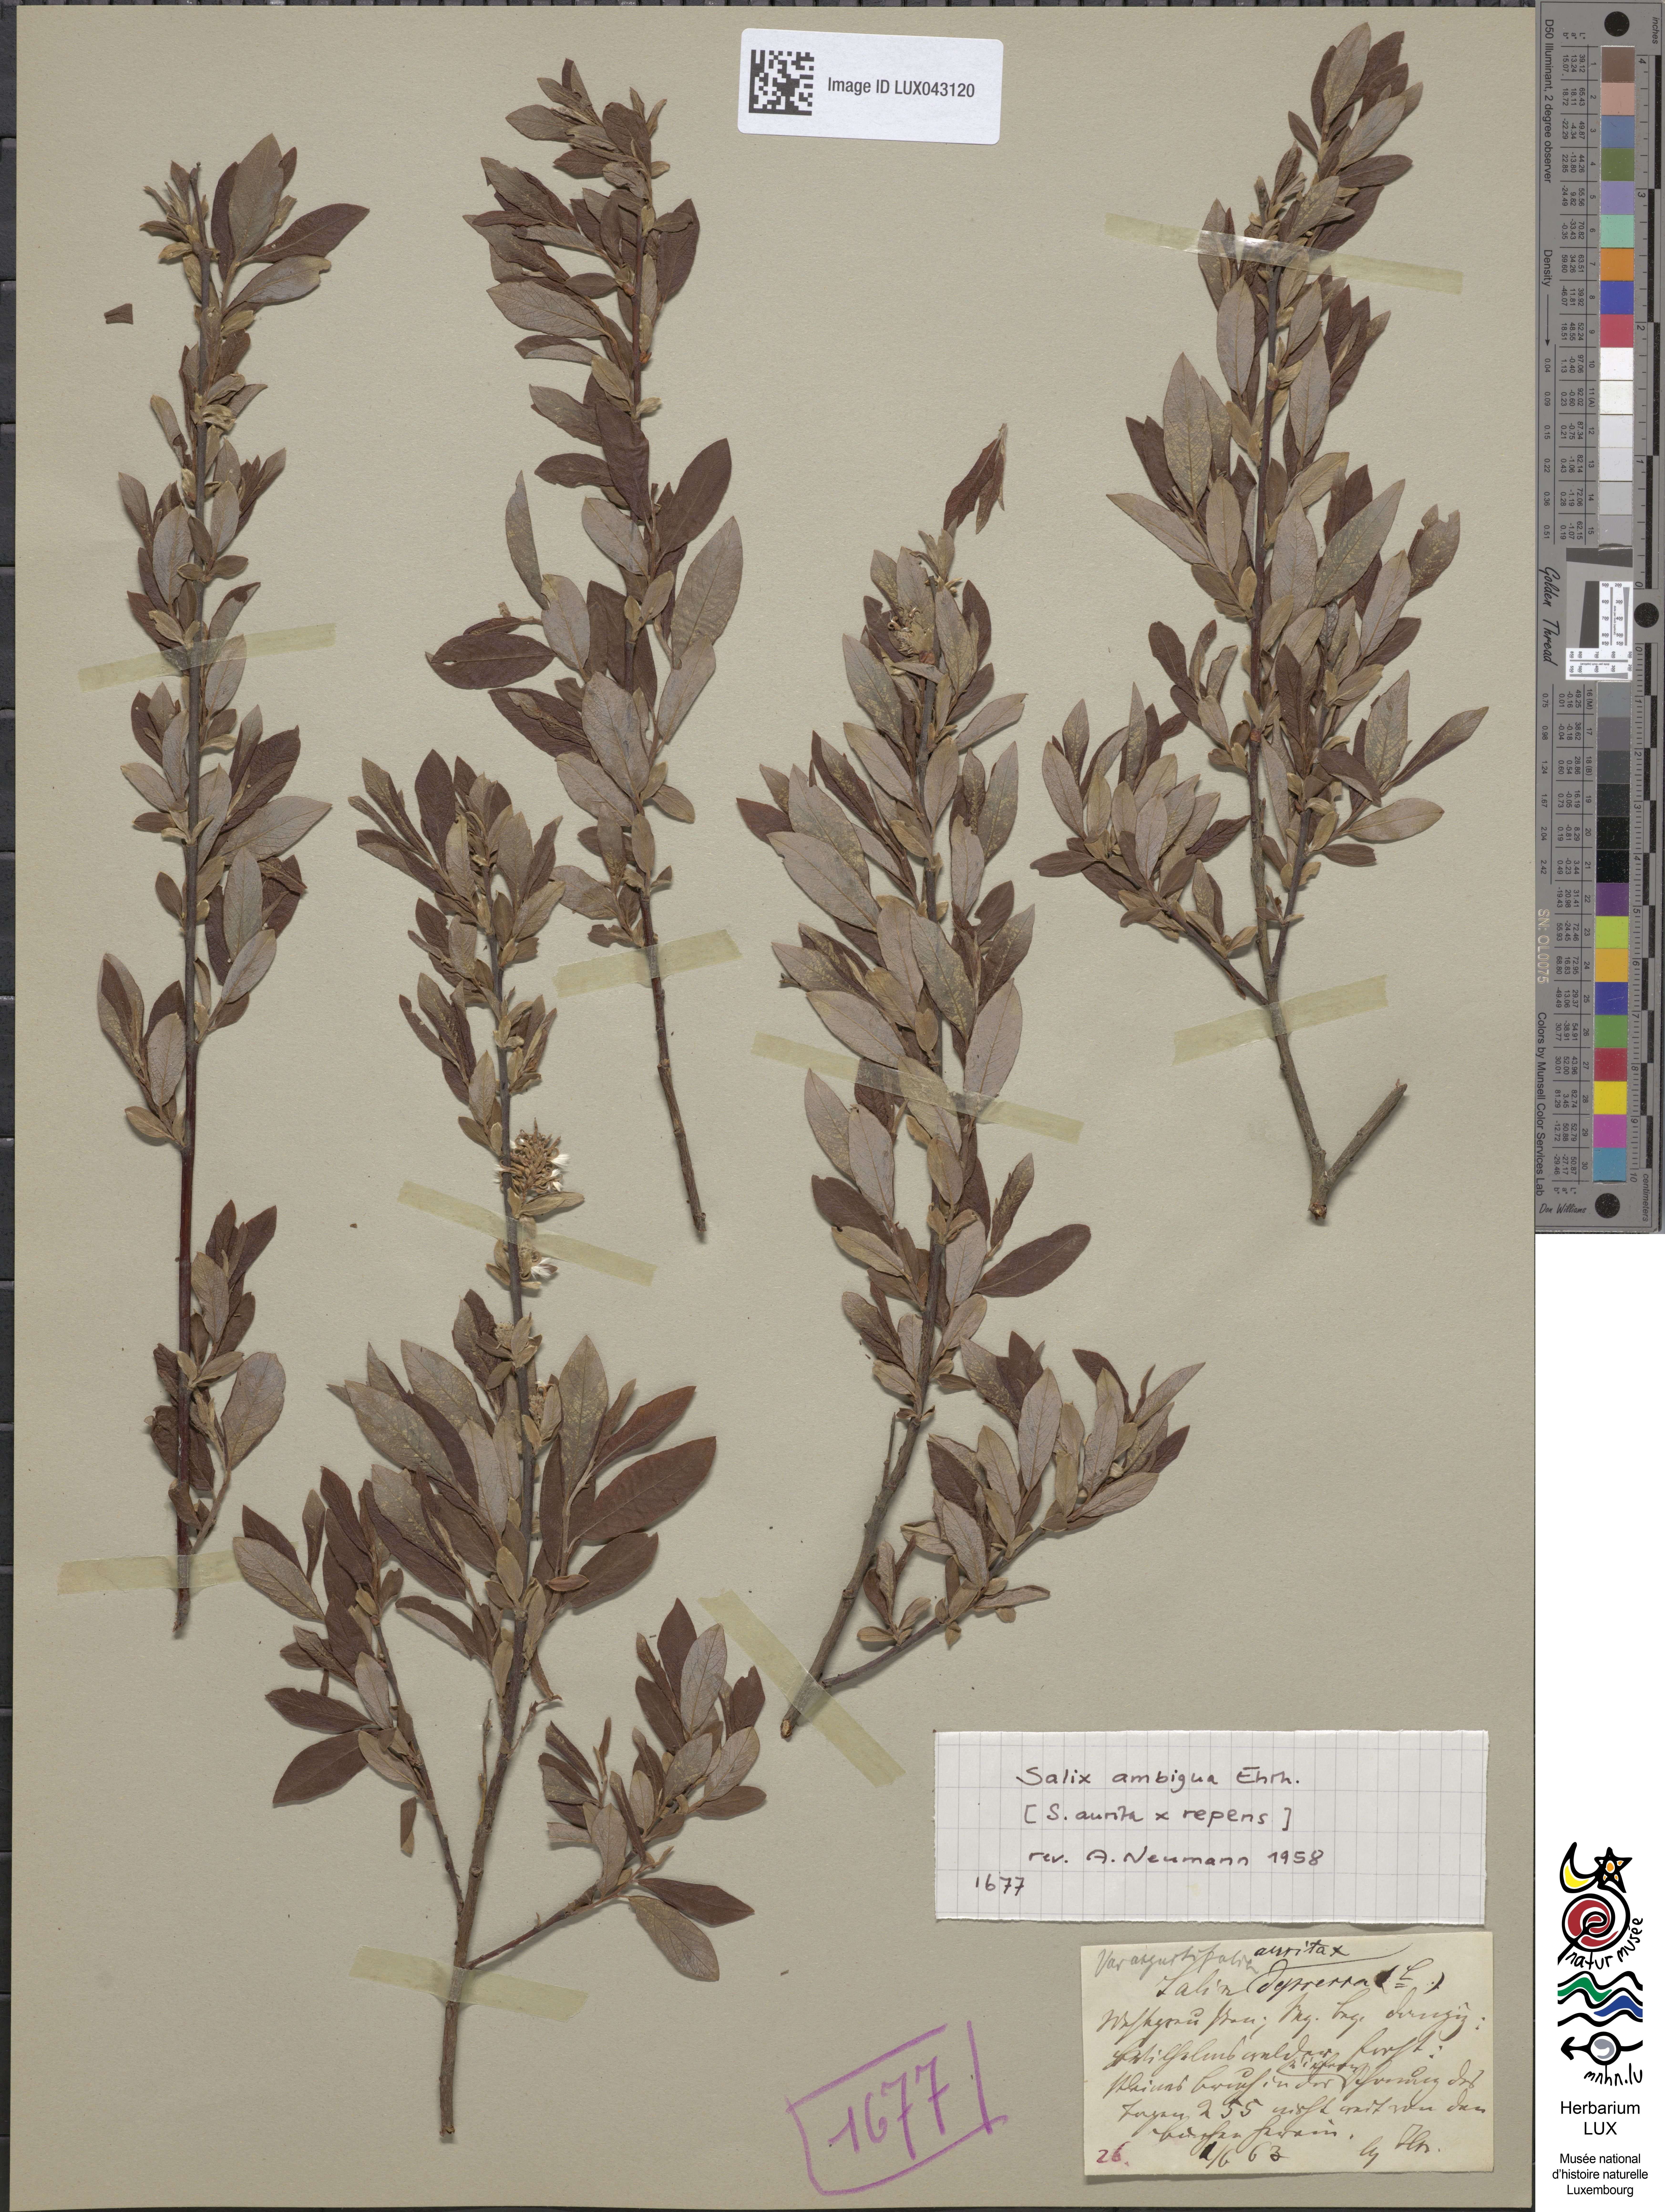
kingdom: Plantae
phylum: Tracheophyta
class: Magnoliopsida
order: Malpighiales
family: Salicaceae
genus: Salix
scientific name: Salix
